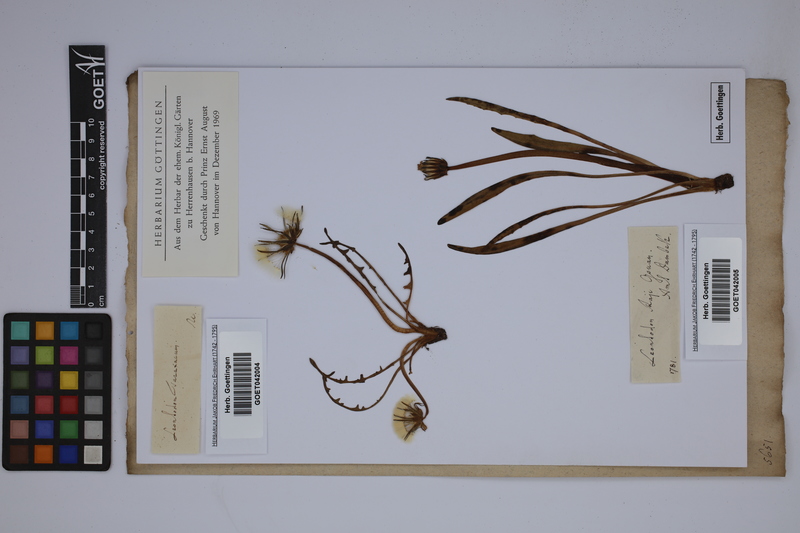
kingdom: Plantae
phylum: Tracheophyta
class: Magnoliopsida
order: Asterales
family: Asteraceae
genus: Taraxacum
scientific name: Taraxacum officinale
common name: Common dandelion
